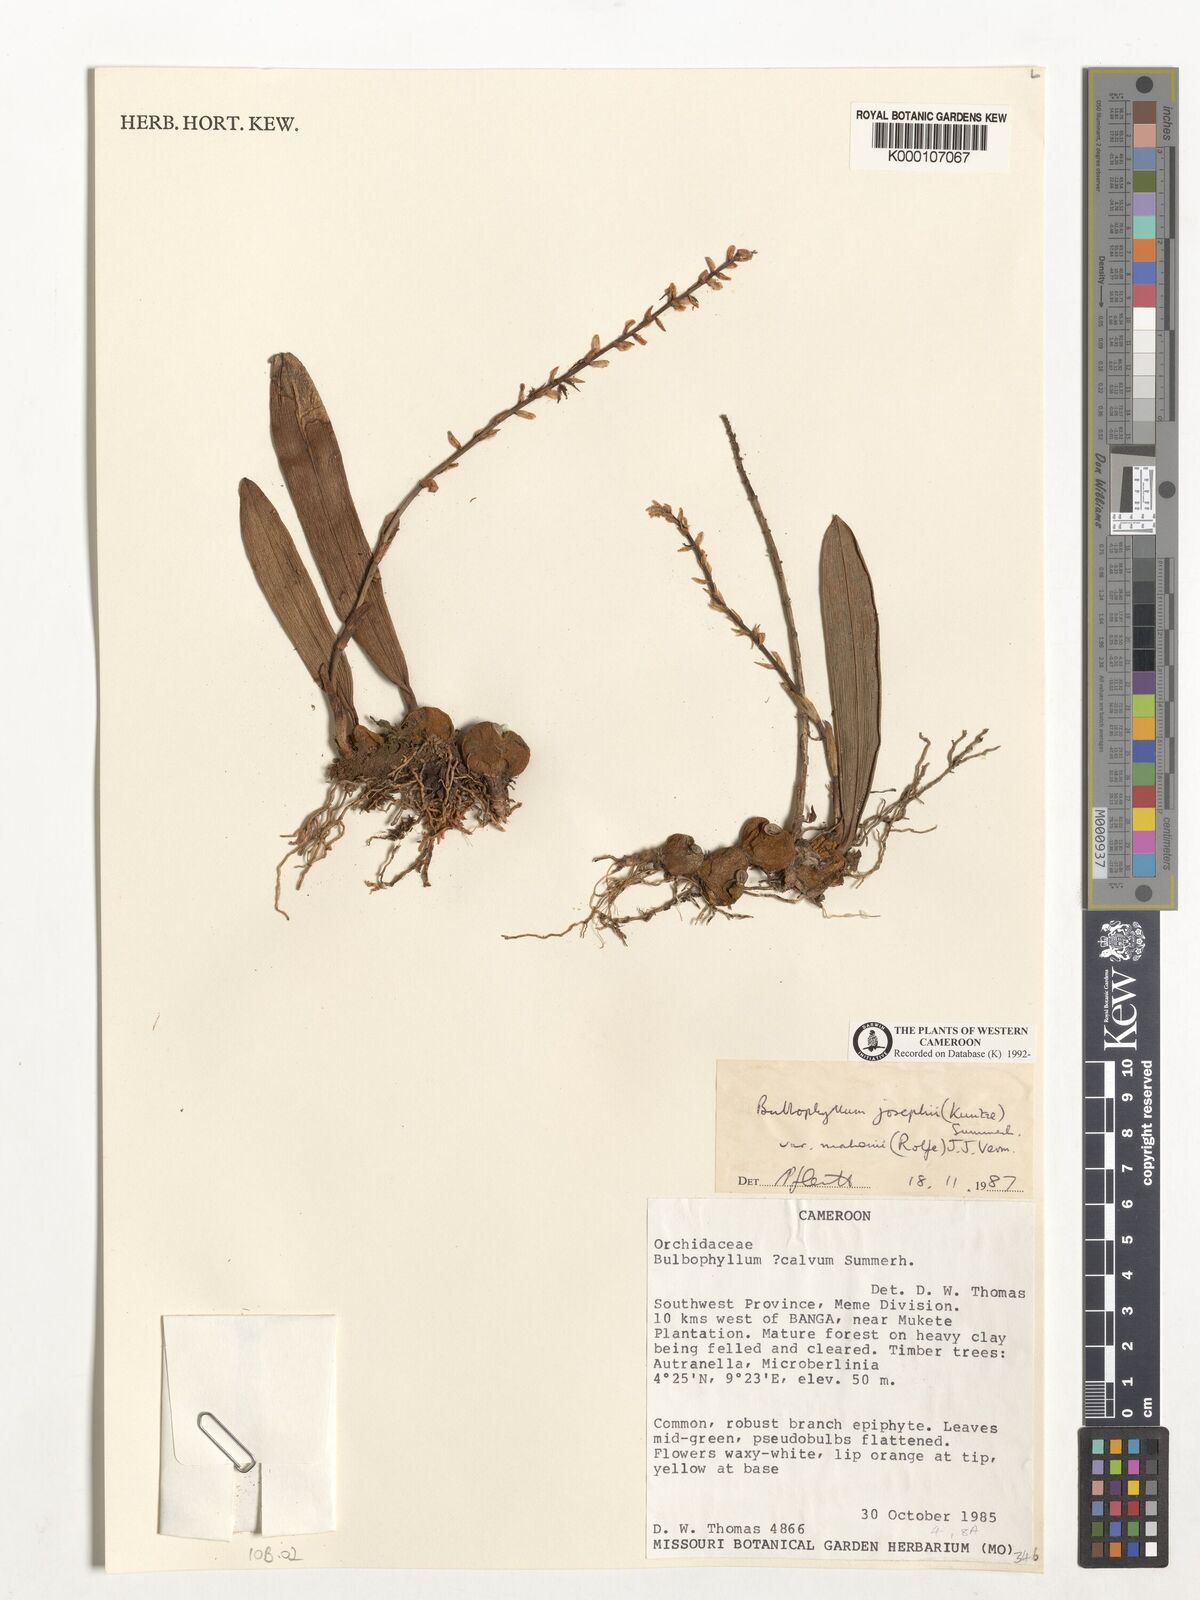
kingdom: Plantae
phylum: Tracheophyta
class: Liliopsida
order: Asparagales
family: Orchidaceae
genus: Bulbophyllum
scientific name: Bulbophyllum josephi
